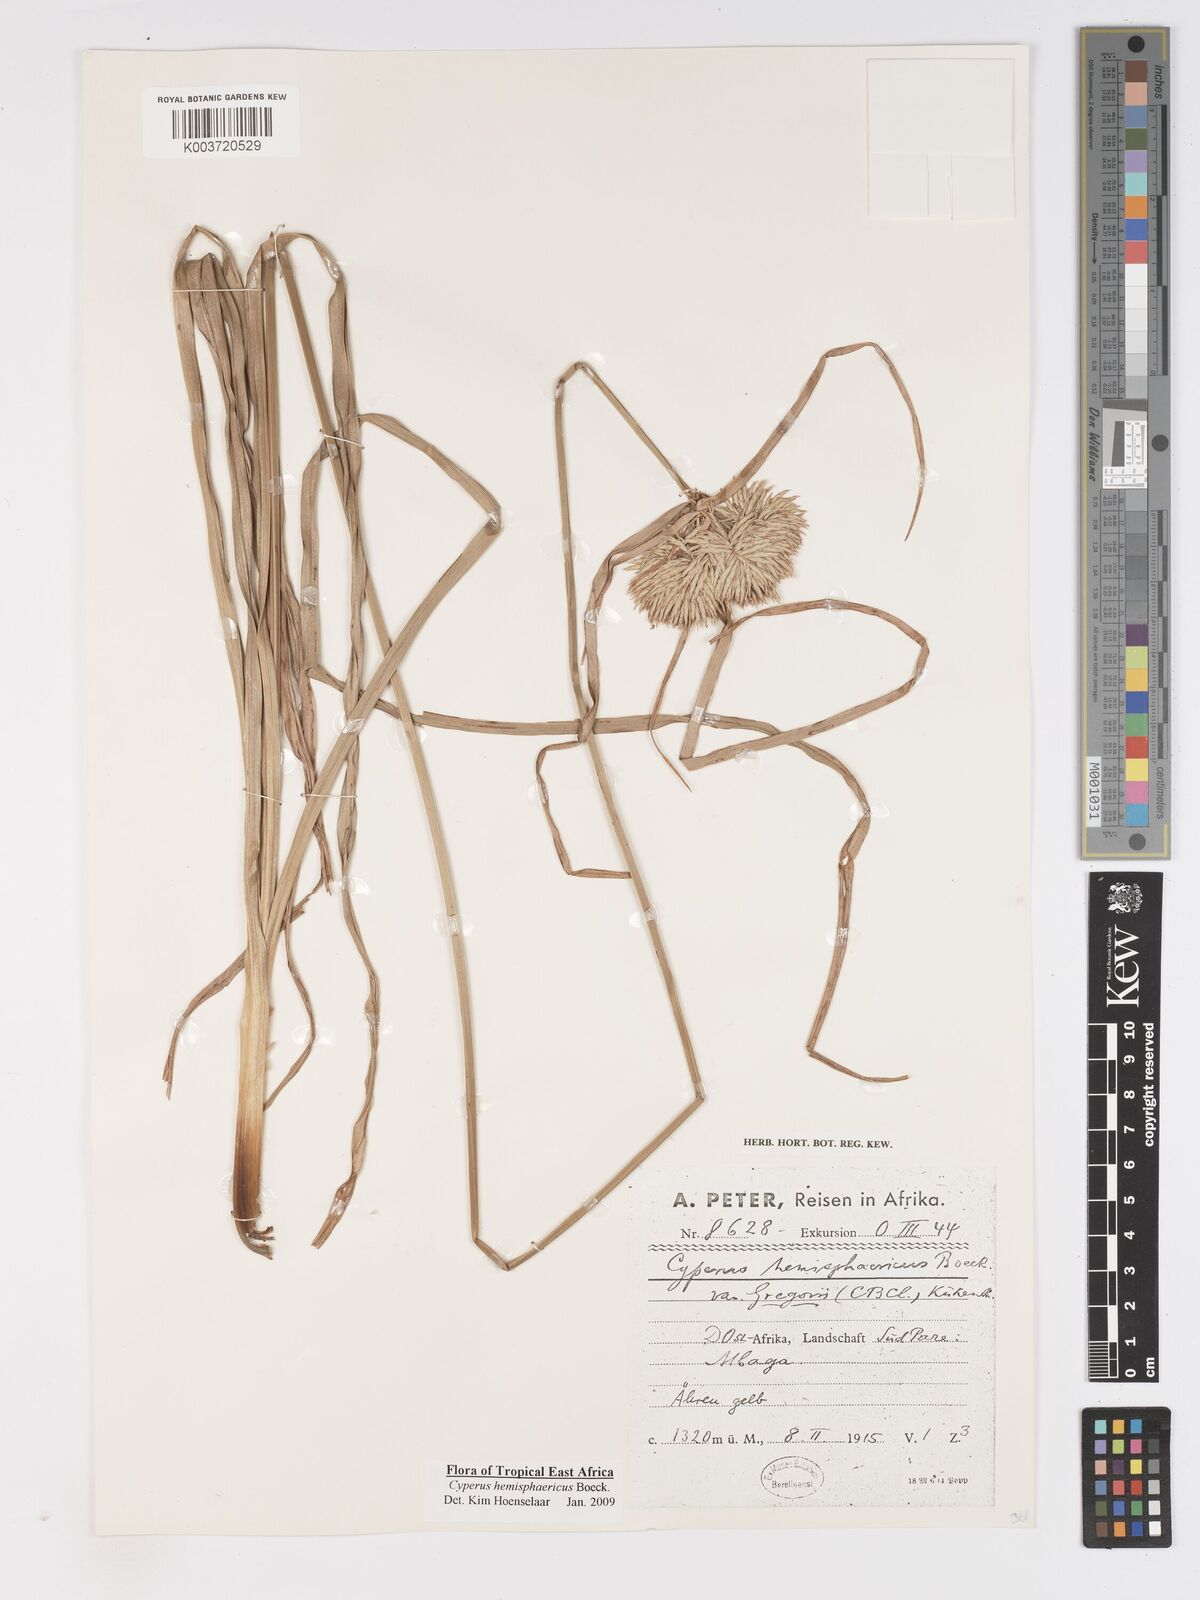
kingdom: Plantae
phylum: Tracheophyta
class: Liliopsida
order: Poales
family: Cyperaceae
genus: Cyperus
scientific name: Cyperus hemisphaericus
